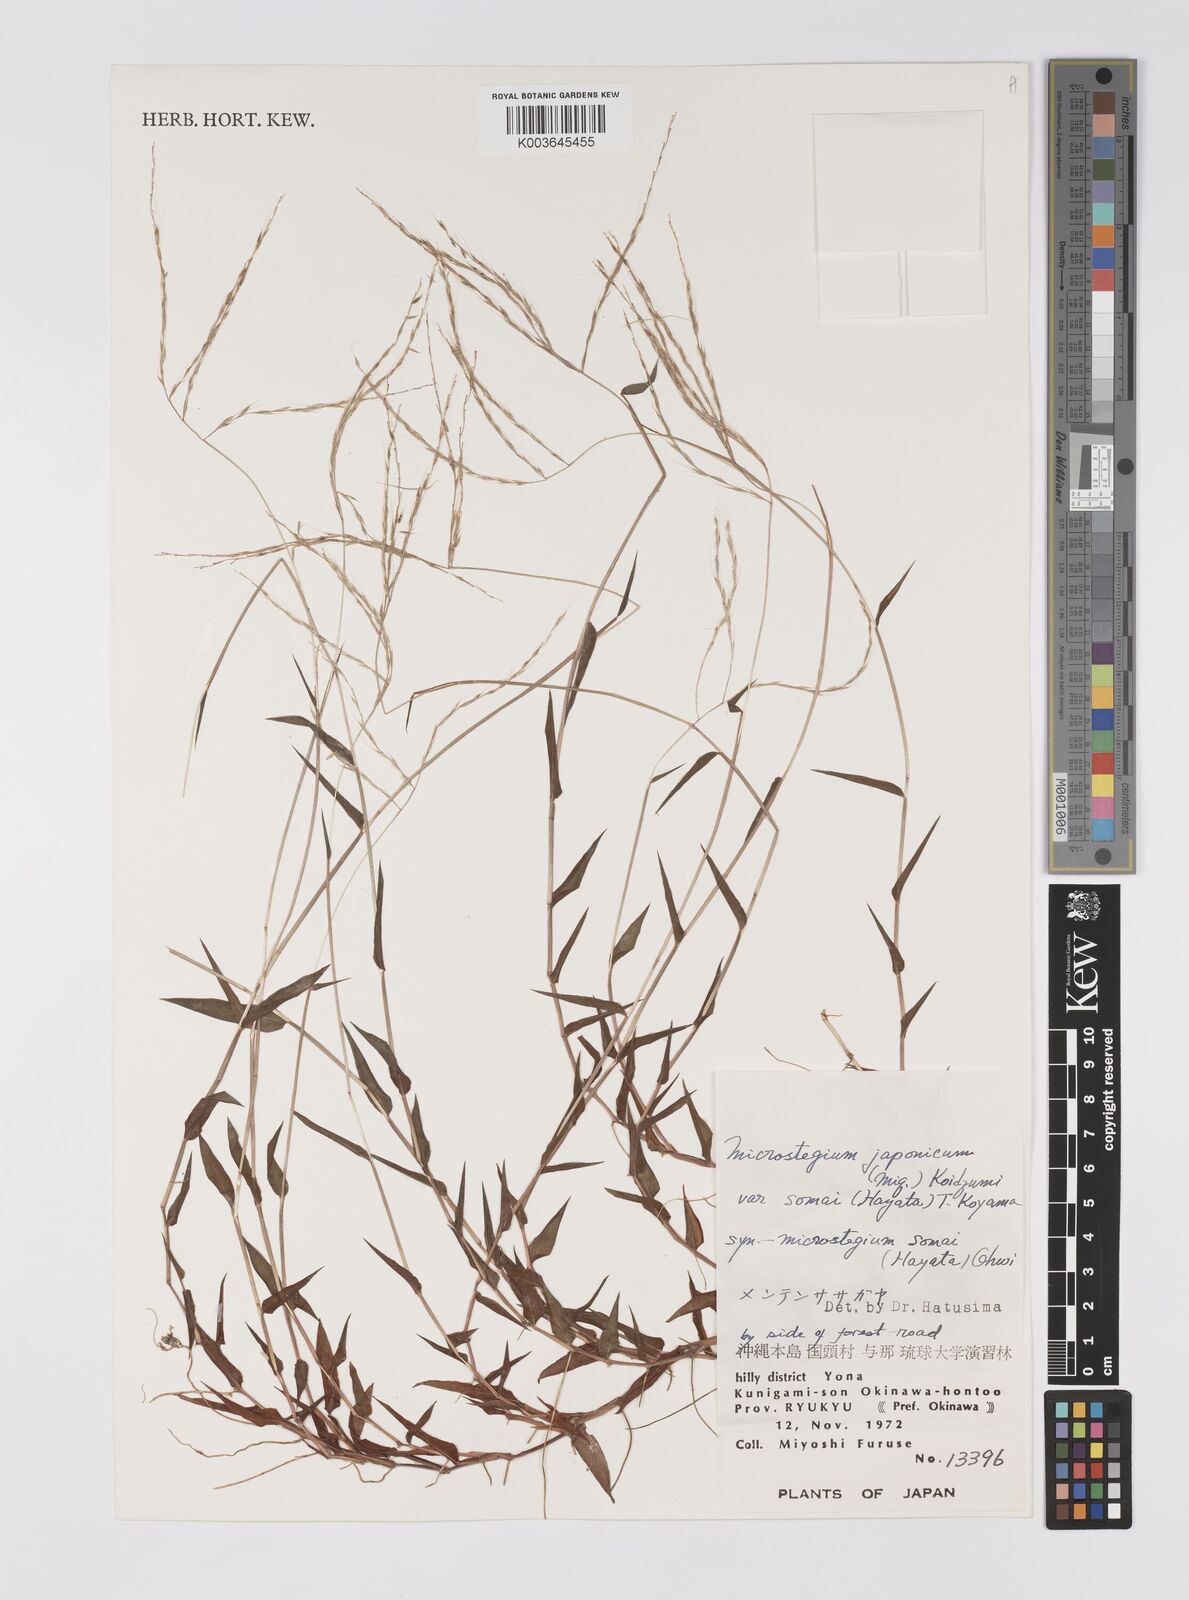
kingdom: Plantae
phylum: Tracheophyta
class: Liliopsida
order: Poales
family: Poaceae
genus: Microstegium
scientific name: Microstegium japonicum
